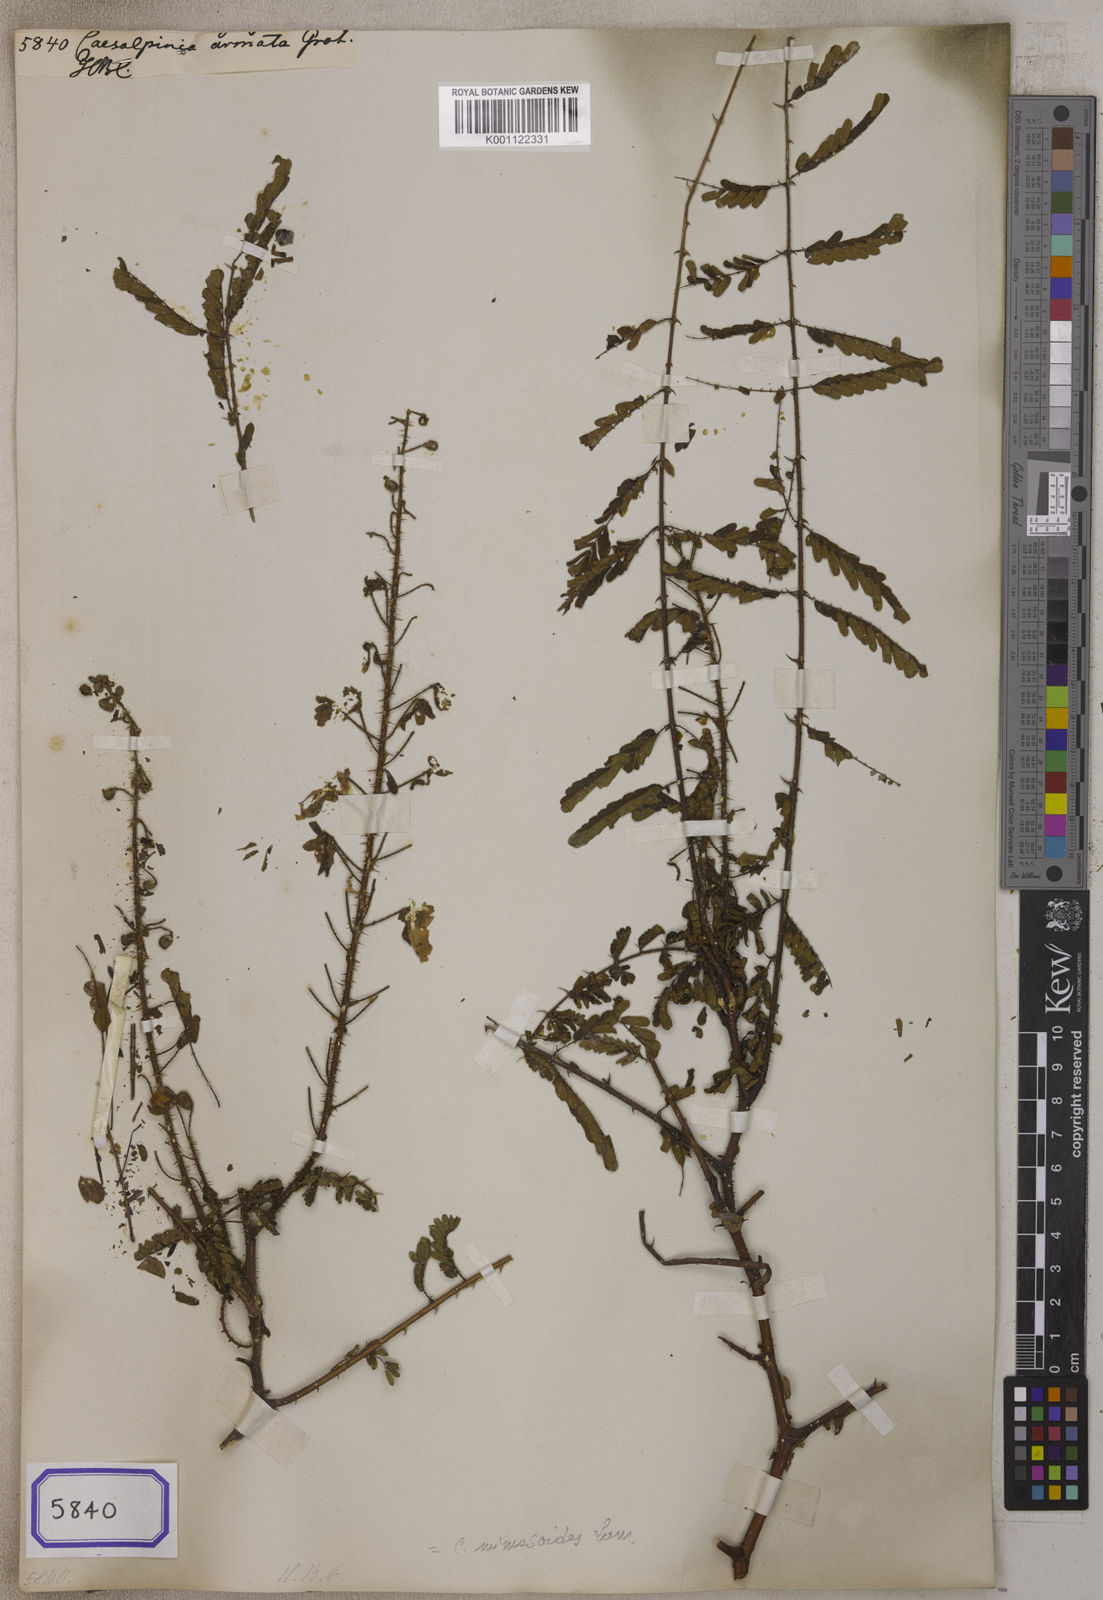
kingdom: Plantae
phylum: Tracheophyta
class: Magnoliopsida
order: Fabales
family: Fabaceae
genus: Hultholia
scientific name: Hultholia mimosoides
